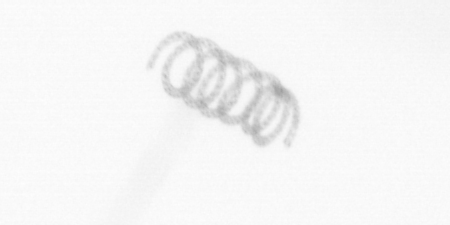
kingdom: Chromista
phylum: Ochrophyta
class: Bacillariophyceae
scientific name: Bacillariophyceae
